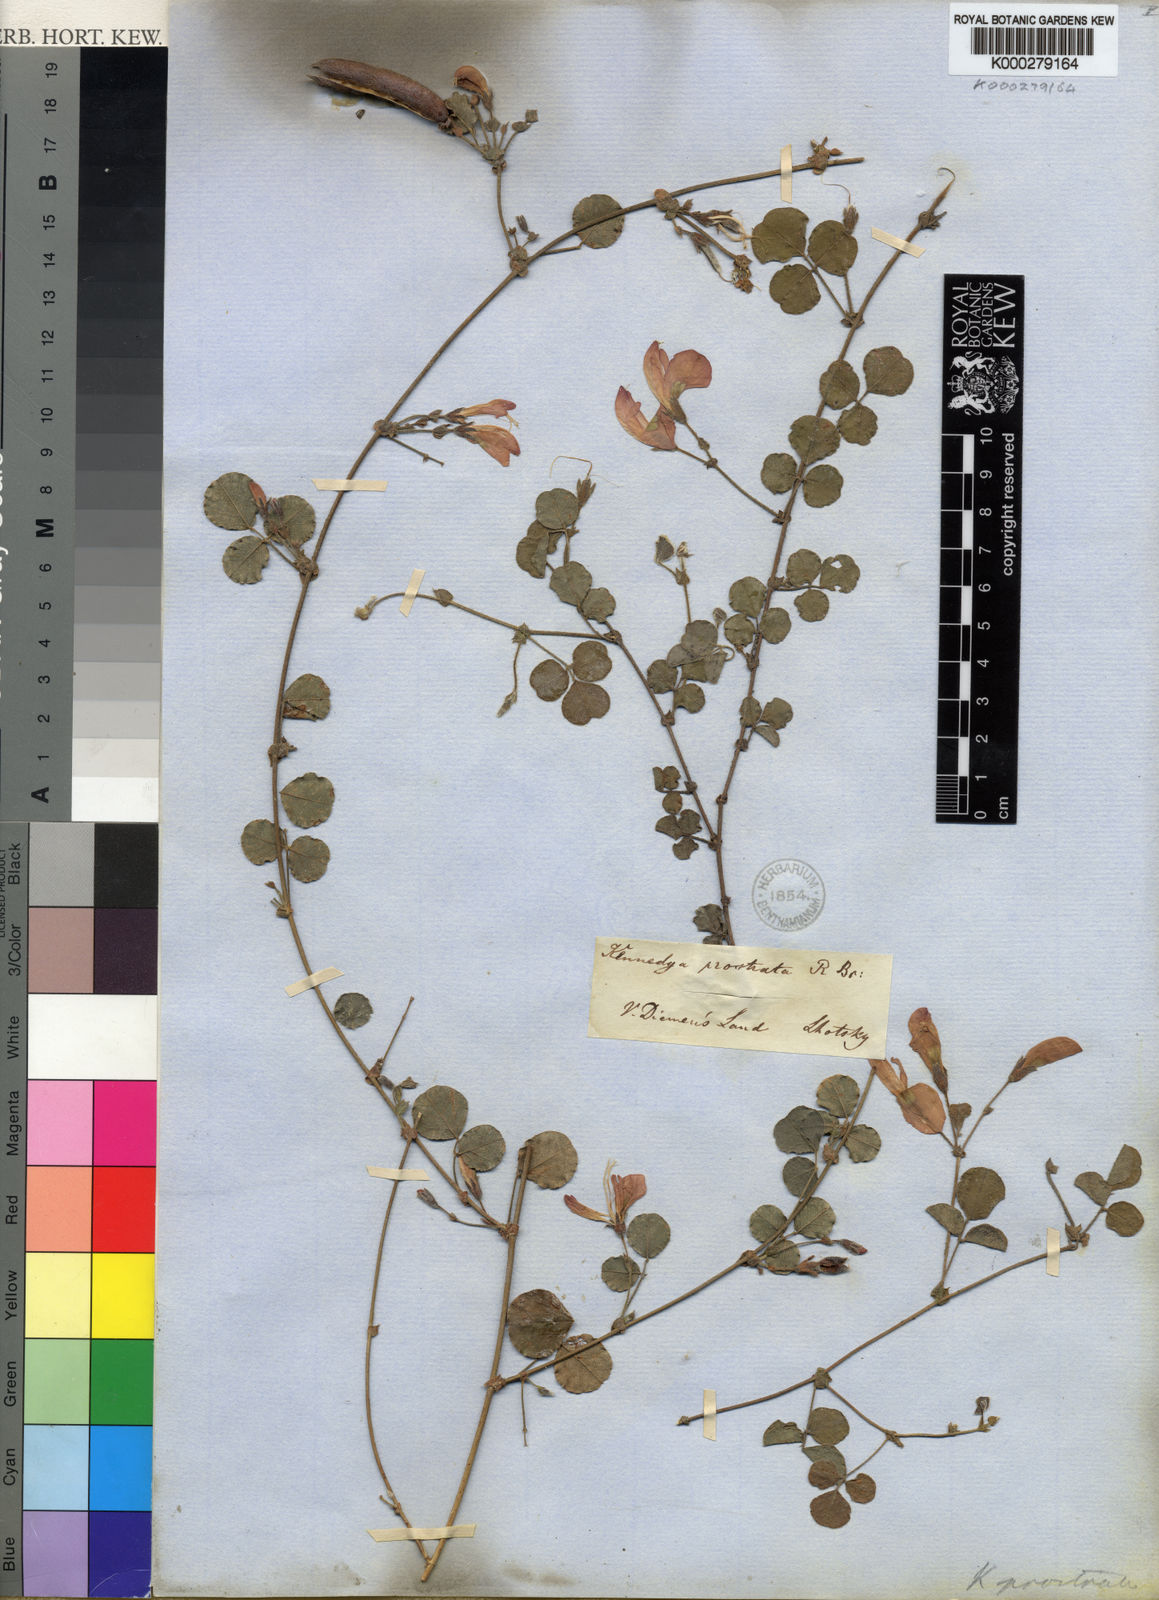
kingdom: Plantae
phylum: Tracheophyta
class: Magnoliopsida
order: Fabales
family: Fabaceae
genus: Kennedia
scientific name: Kennedia prostrata
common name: Running-postman
